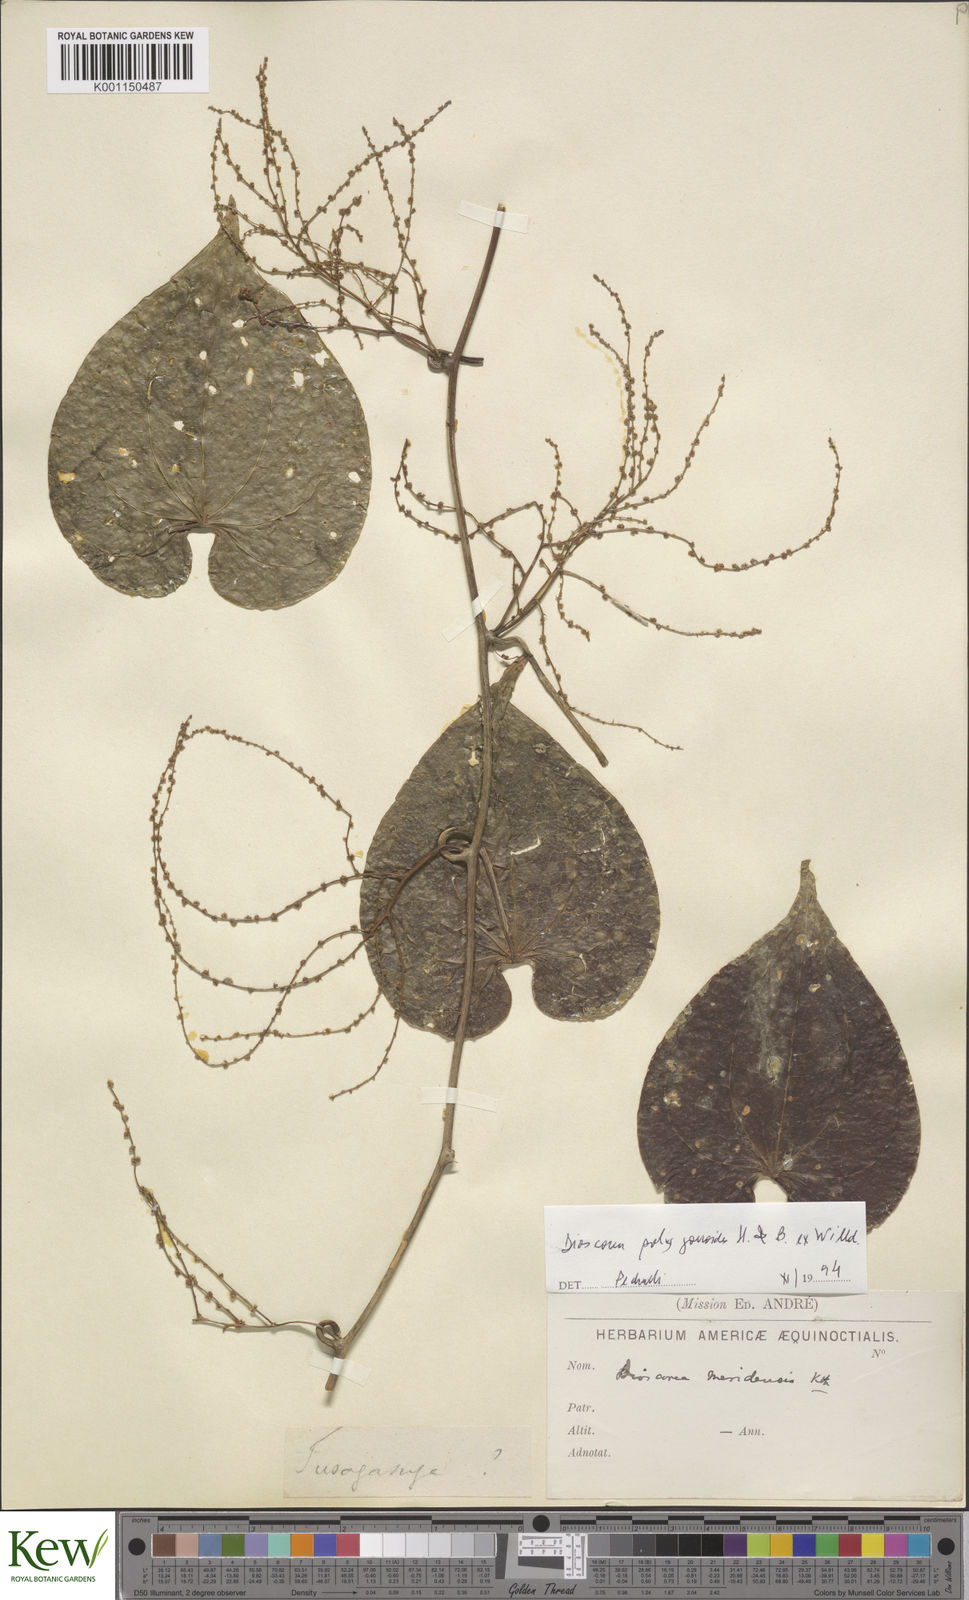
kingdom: Plantae
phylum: Tracheophyta
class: Liliopsida
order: Dioscoreales
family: Dioscoreaceae
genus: Dioscorea
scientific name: Dioscorea meridensis
